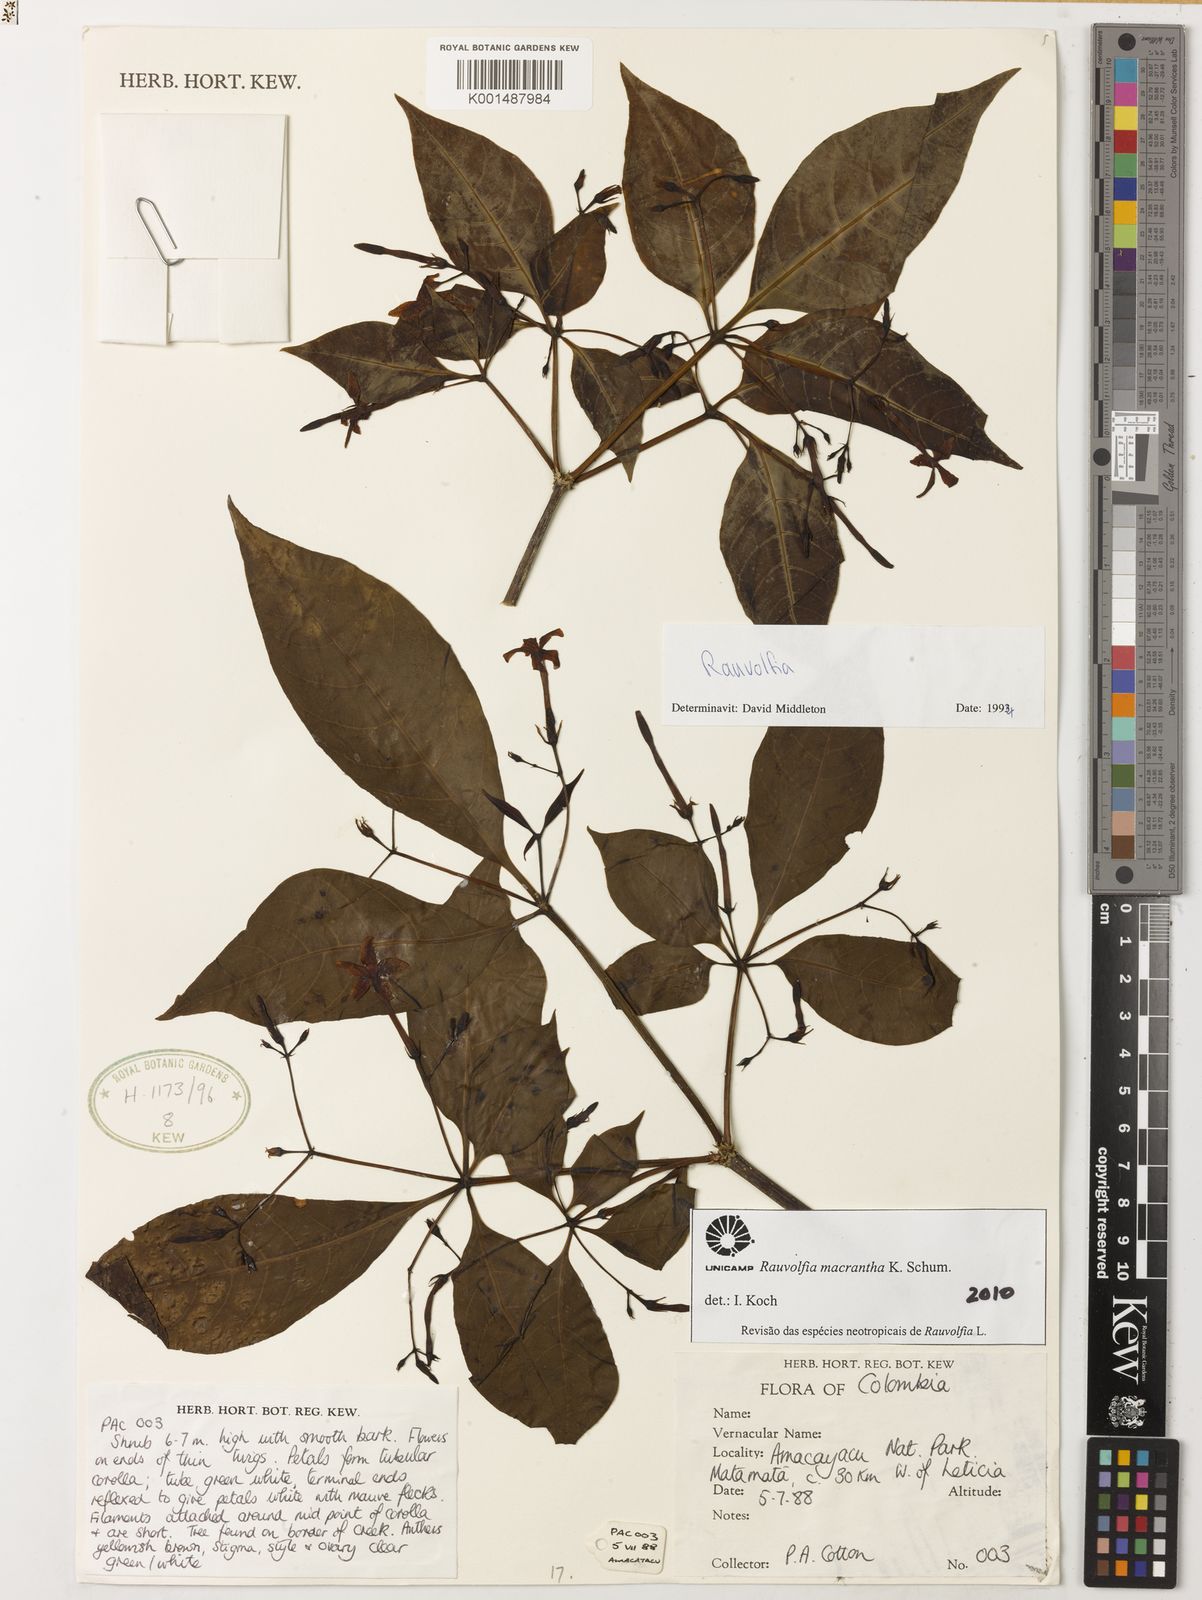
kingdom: Plantae
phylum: Tracheophyta
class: Magnoliopsida
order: Gentianales
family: Apocynaceae
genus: Rauvolfia
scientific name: Rauvolfia macrantha
